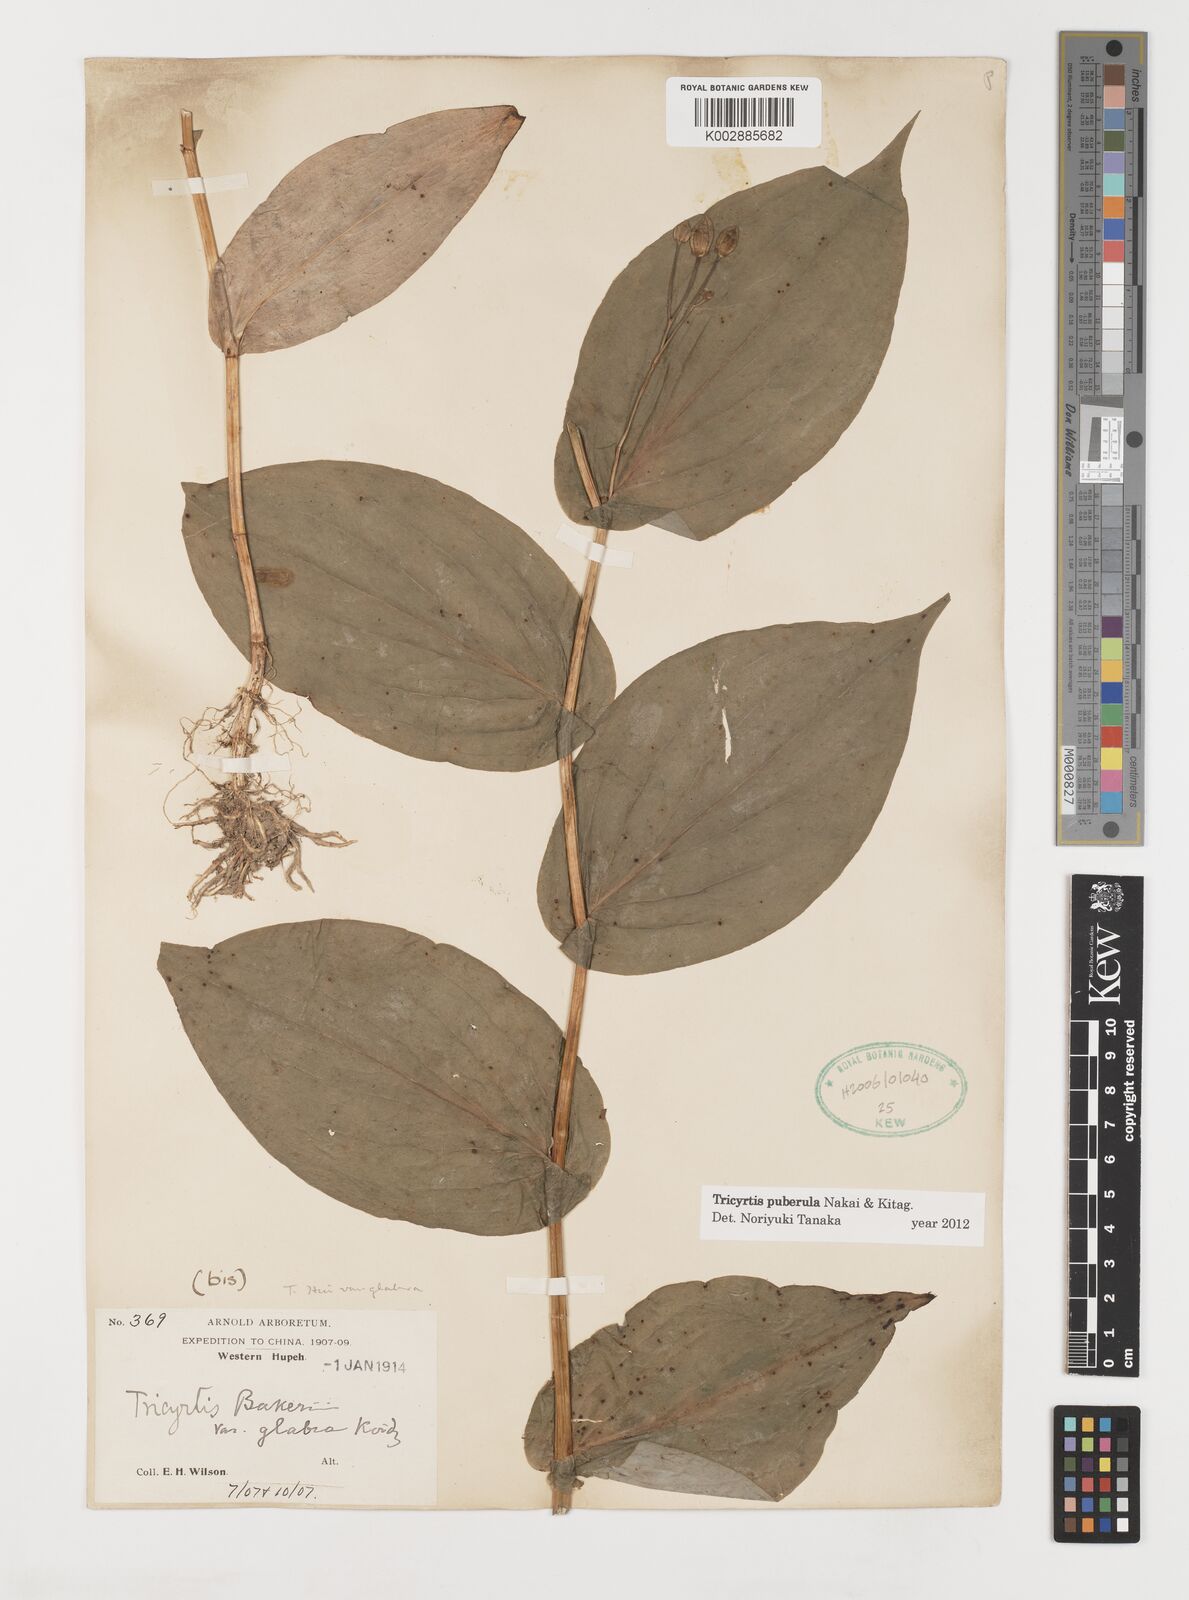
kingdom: Plantae
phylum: Tracheophyta
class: Liliopsida
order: Liliales
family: Liliaceae
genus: Tricyrtis
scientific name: Tricyrtis puberula
